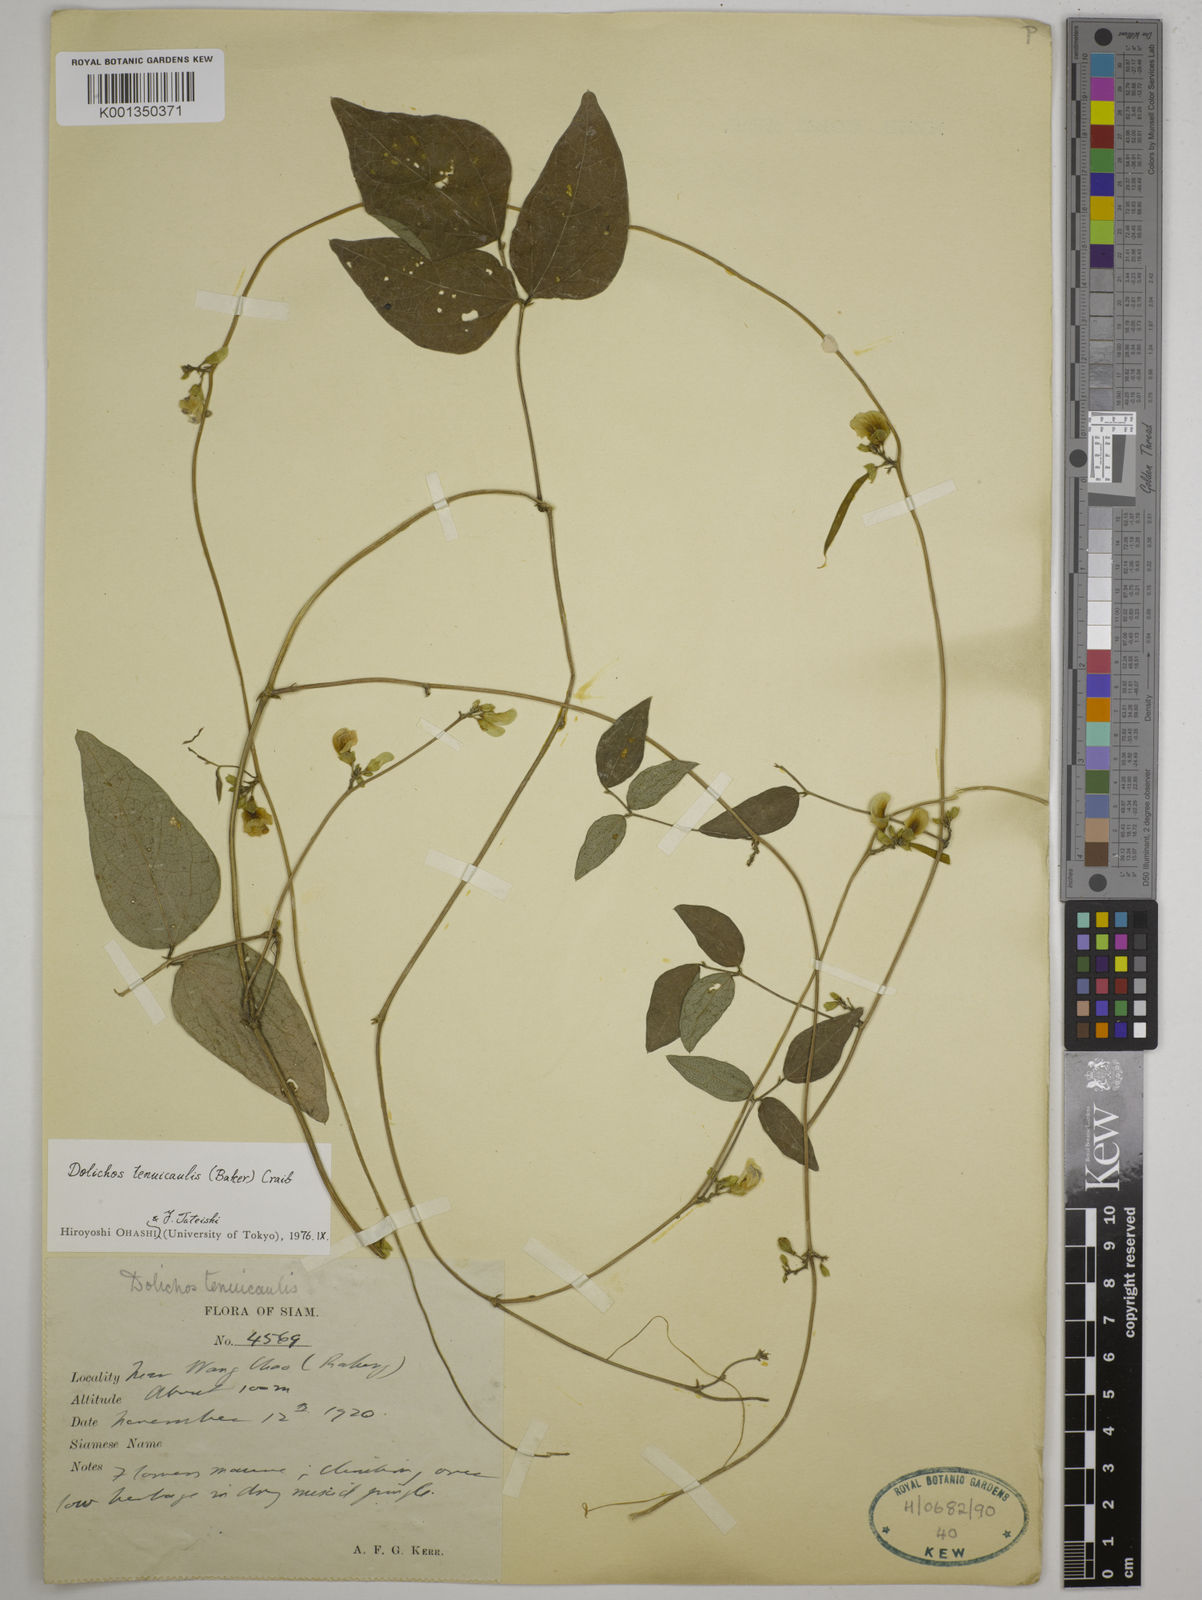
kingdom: Plantae
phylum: Tracheophyta
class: Magnoliopsida
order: Fabales
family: Fabaceae
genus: Dolichos
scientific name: Dolichos tenuicaulis
